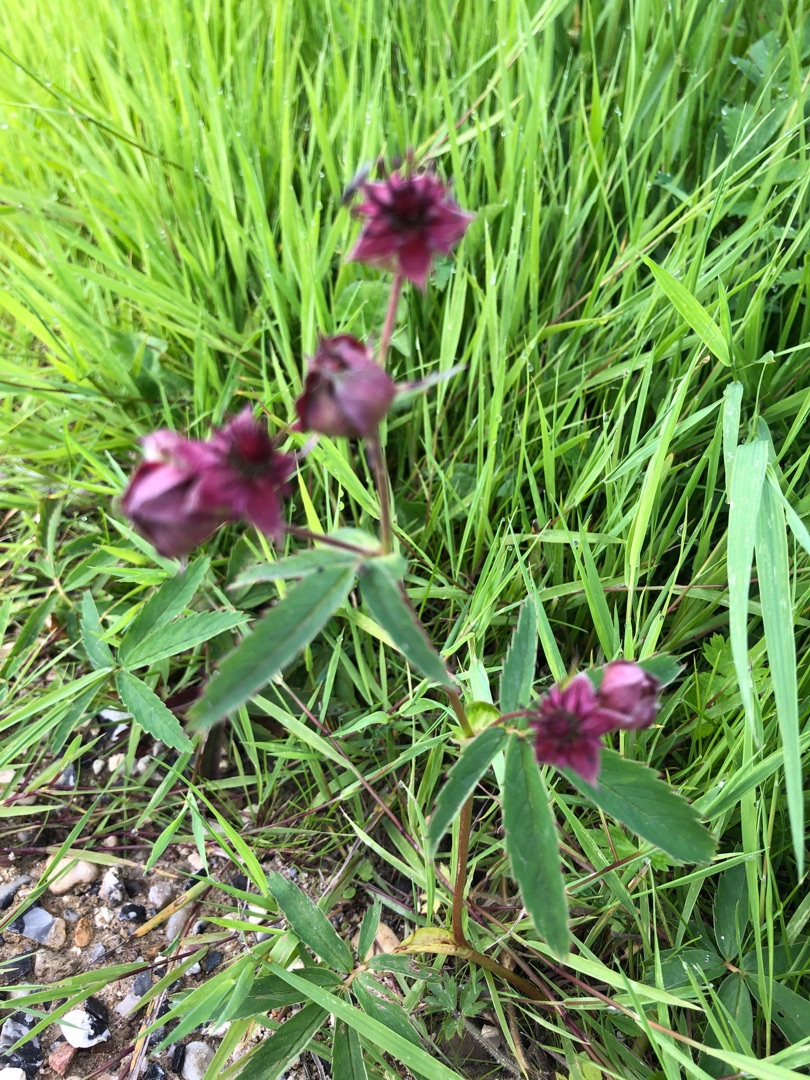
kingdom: Plantae
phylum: Tracheophyta
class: Magnoliopsida
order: Rosales
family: Rosaceae
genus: Comarum
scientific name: Comarum palustre
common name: Kragefod
